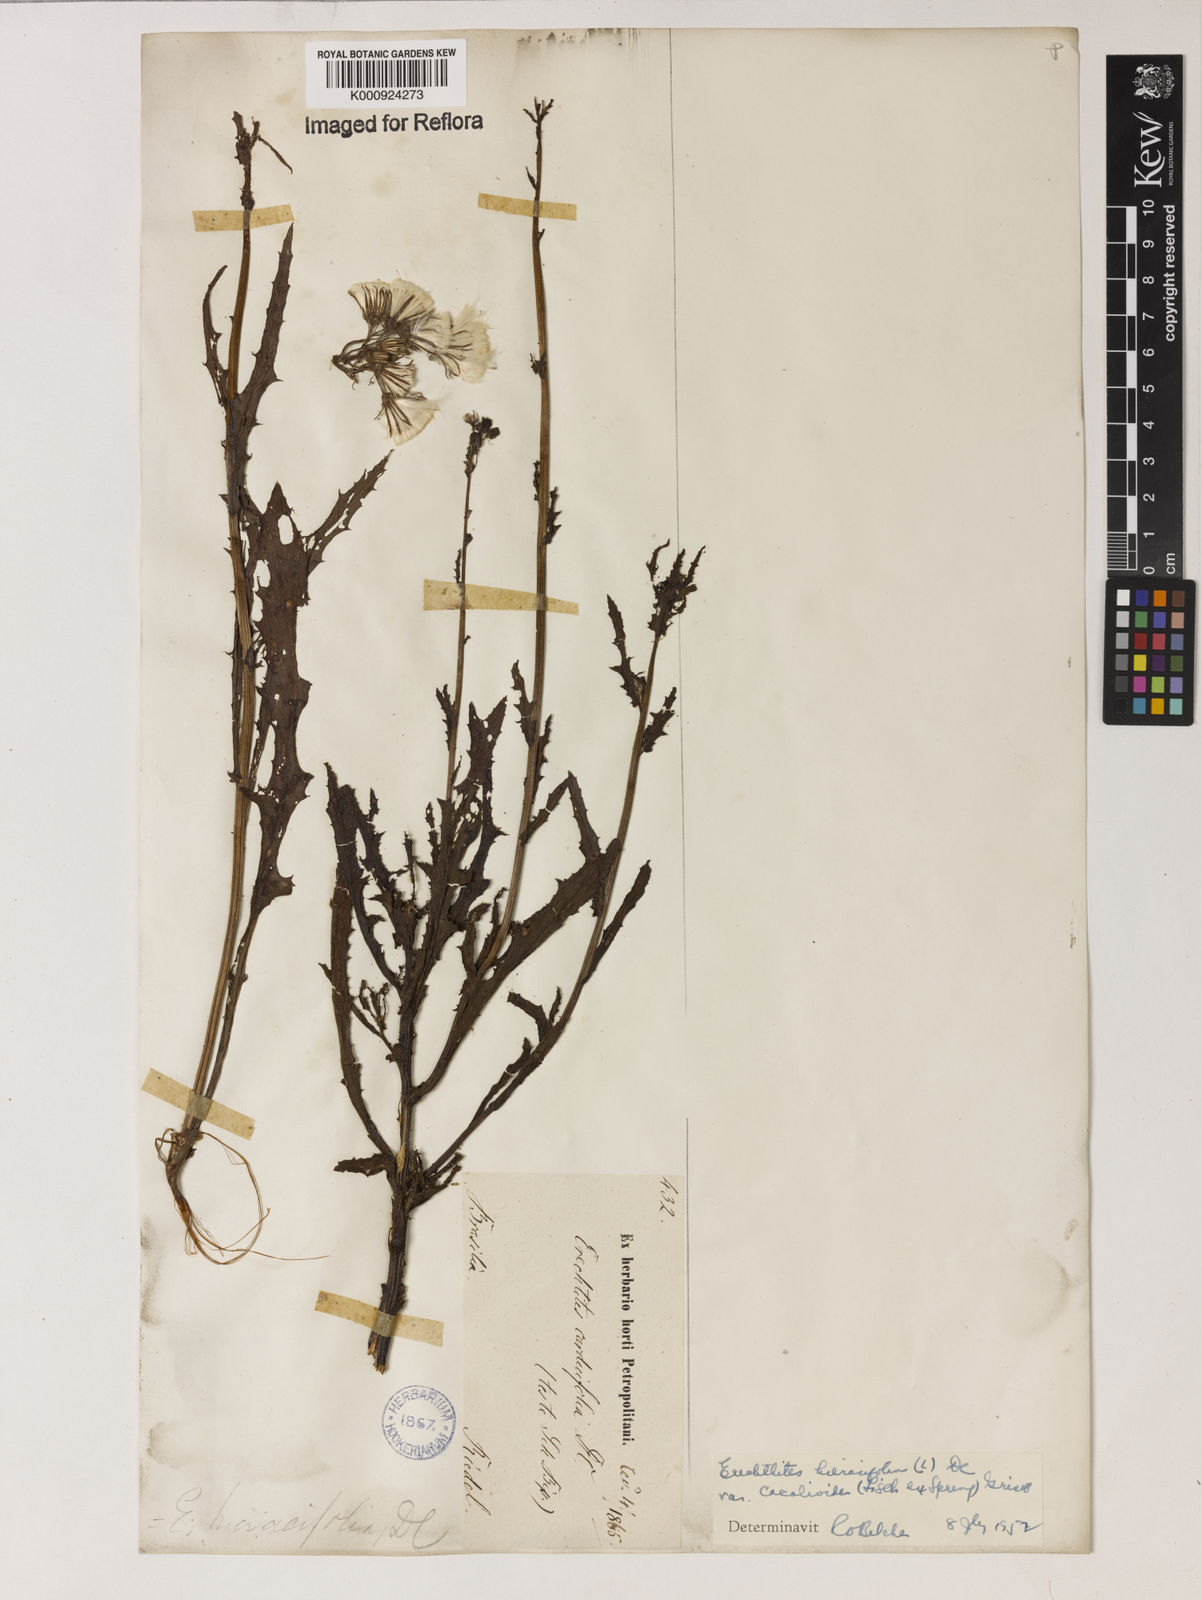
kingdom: Plantae
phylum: Tracheophyta
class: Magnoliopsida
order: Asterales
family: Asteraceae
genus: Erechtites
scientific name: Erechtites hieraciifolius
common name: American burnweed
